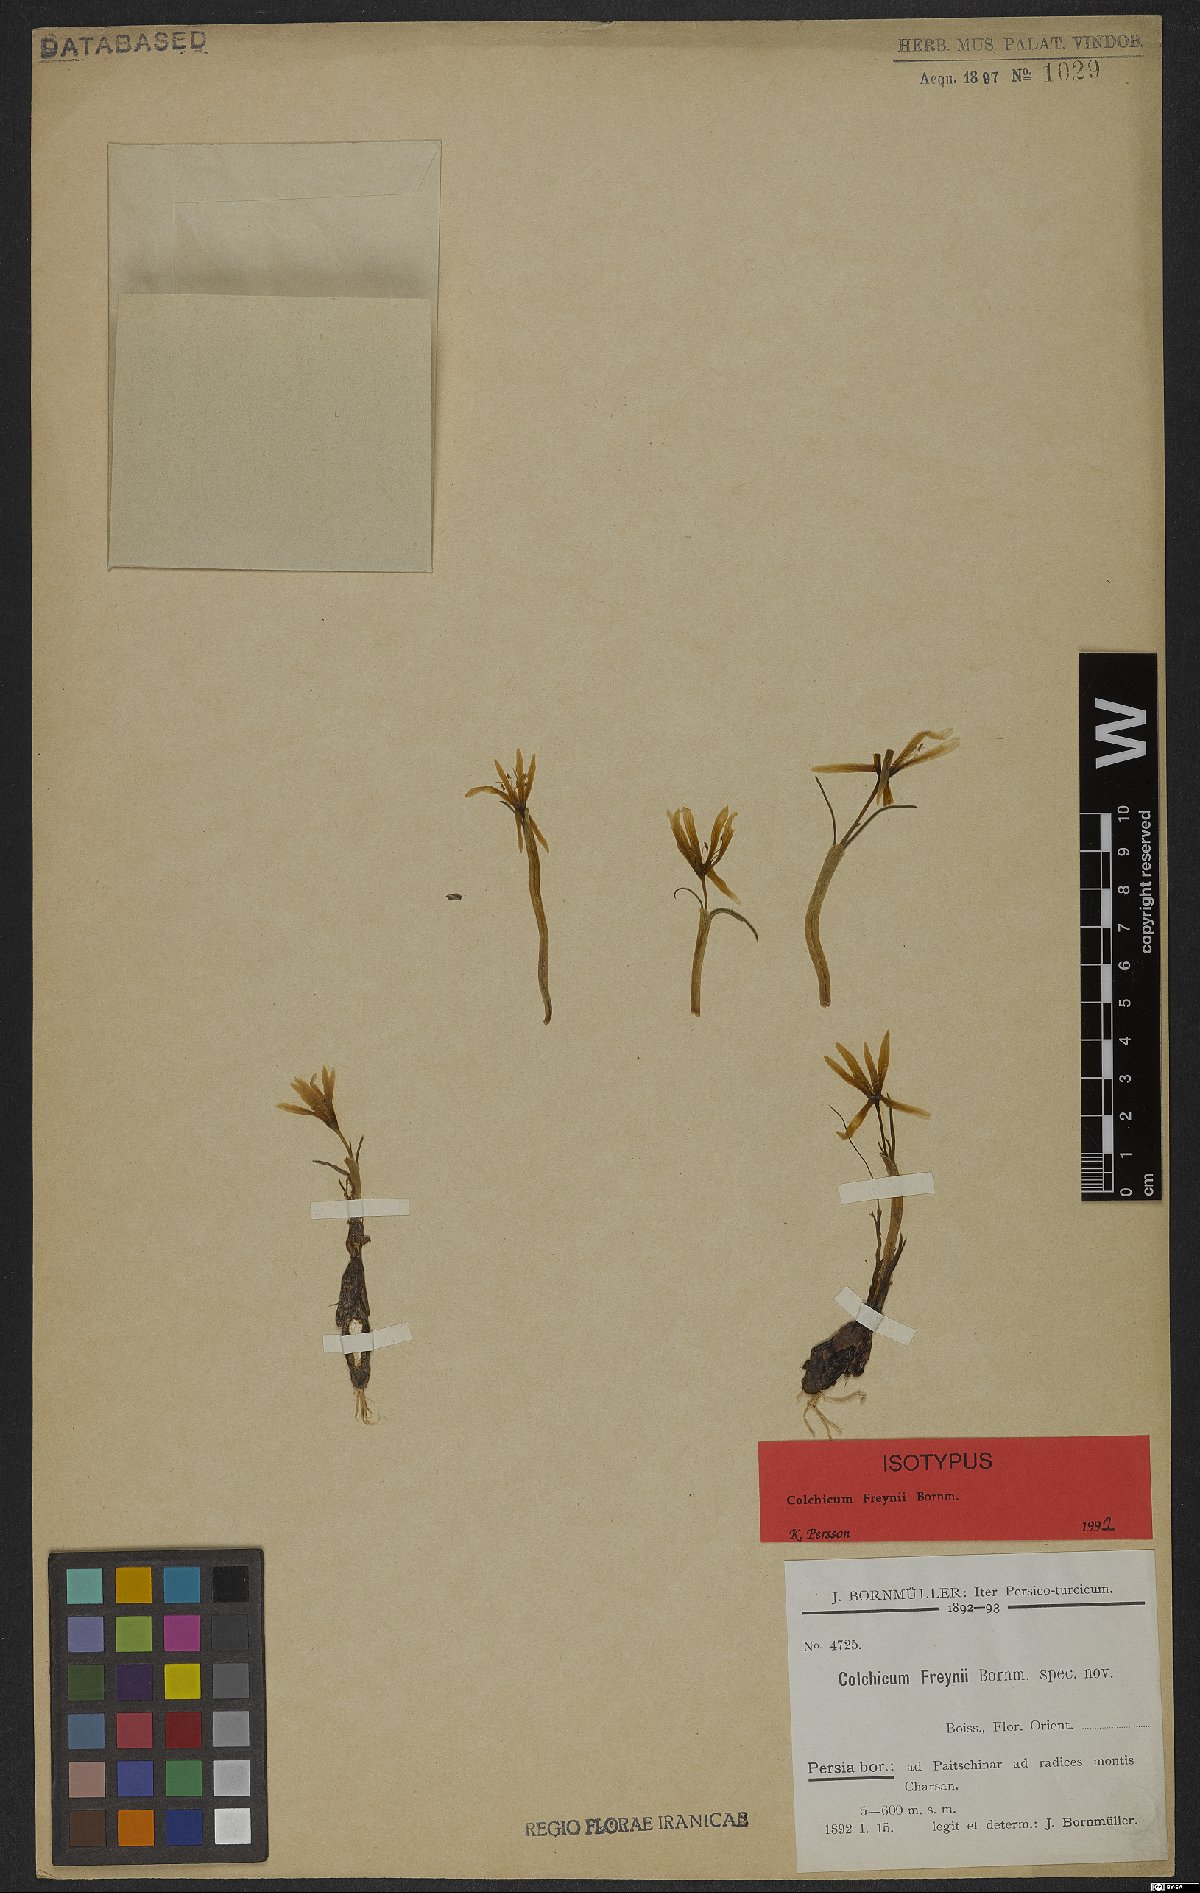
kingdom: Plantae
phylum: Tracheophyta
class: Liliopsida
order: Liliales
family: Colchicaceae
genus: Colchicum
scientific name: Colchicum freynii
